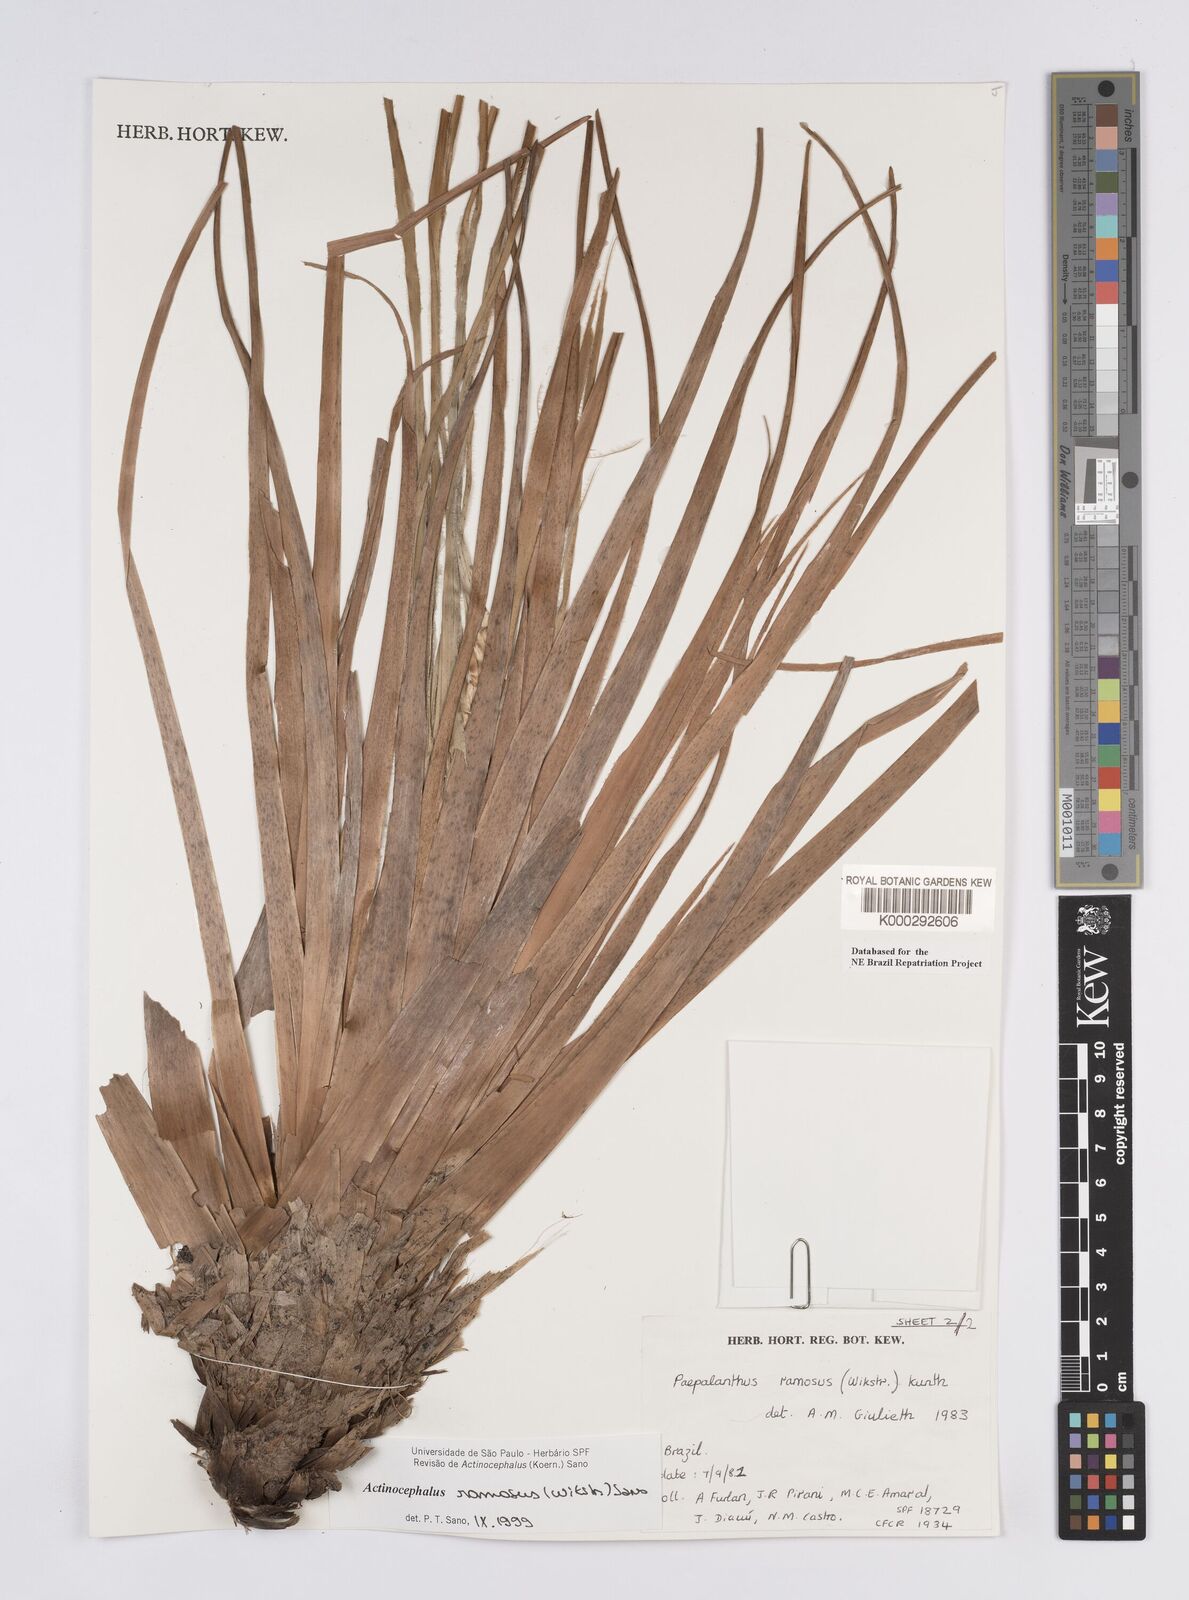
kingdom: Plantae
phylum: Tracheophyta
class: Liliopsida
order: Poales
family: Eriocaulaceae
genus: Paepalanthus
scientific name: Paepalanthus ramosus
